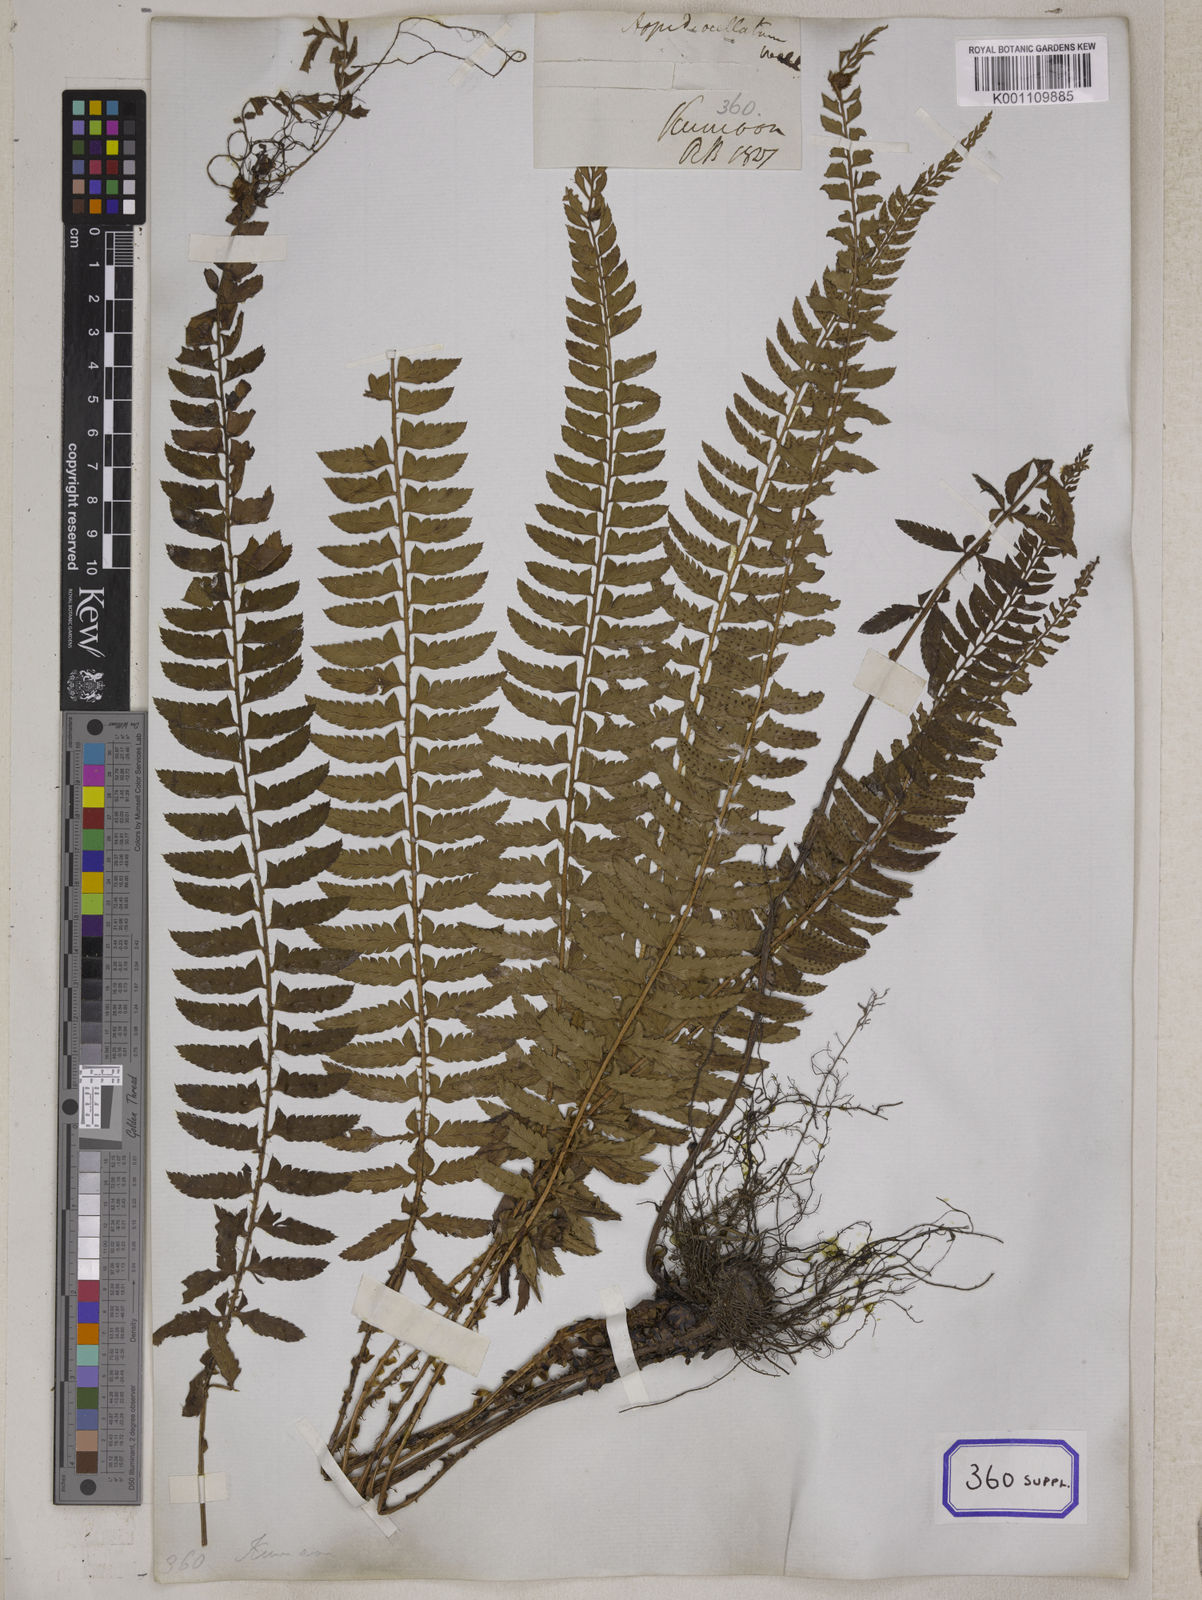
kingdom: Plantae
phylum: Tracheophyta
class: Polypodiopsida
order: Polypodiales
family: Dryopteridaceae
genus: Polystichum
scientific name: Polystichum lentum
